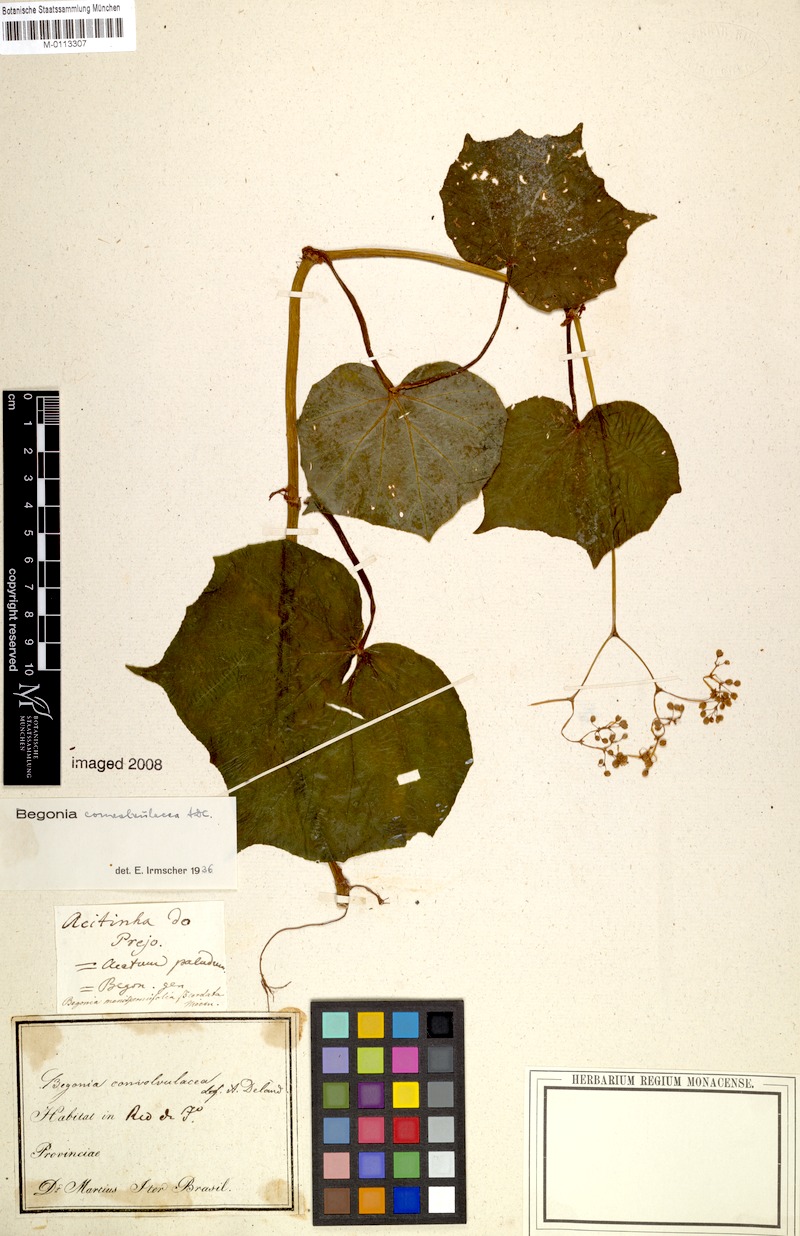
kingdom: Plantae
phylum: Tracheophyta
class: Magnoliopsida
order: Cucurbitales
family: Begoniaceae
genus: Begonia
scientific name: Begonia convolvulacea
